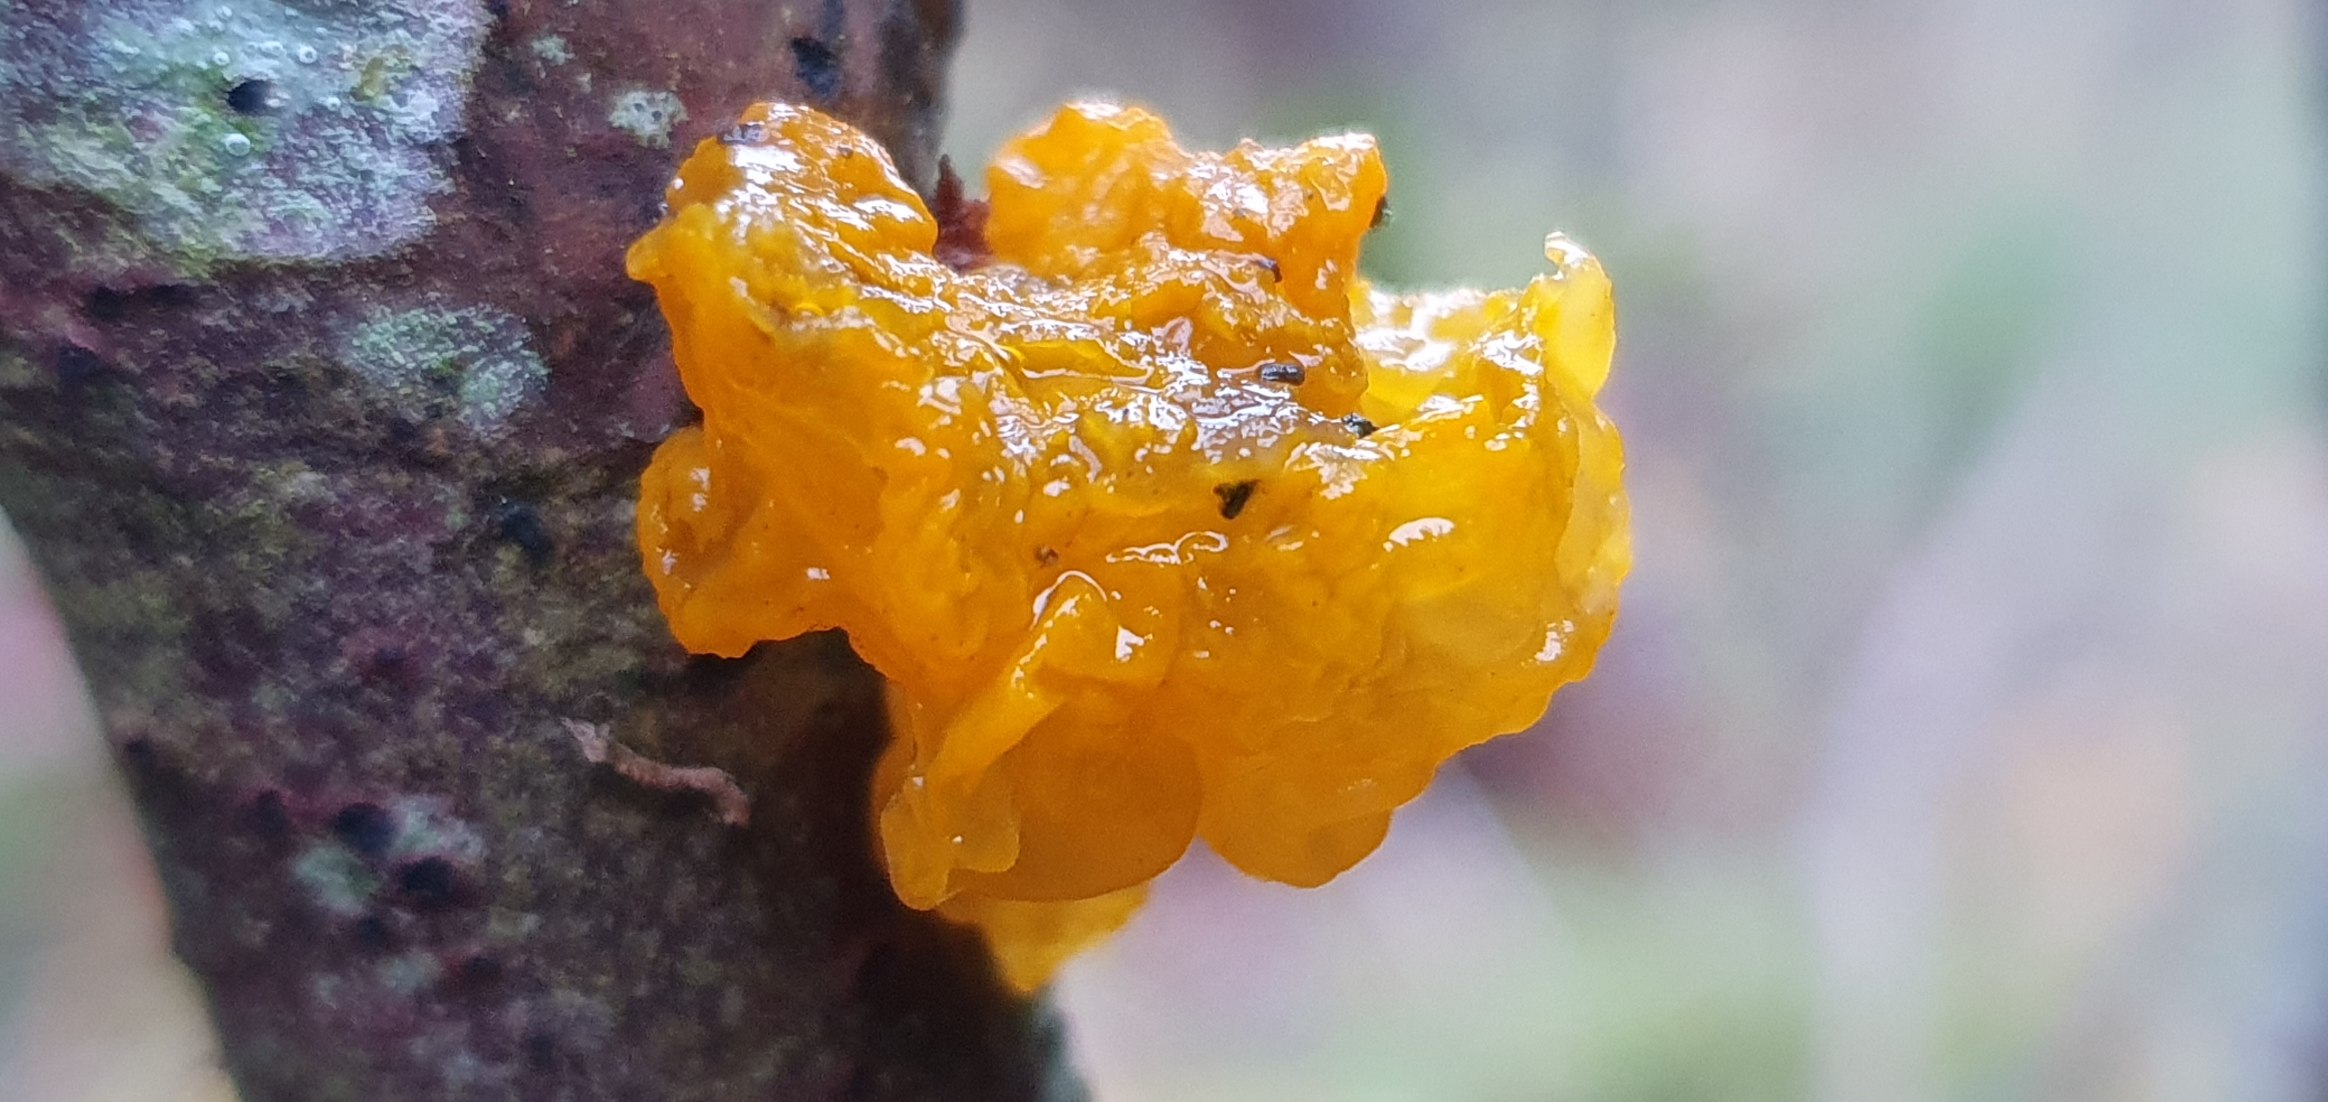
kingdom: Fungi
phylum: Basidiomycota
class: Tremellomycetes
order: Tremellales
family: Tremellaceae
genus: Tremella
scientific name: Tremella mesenterica
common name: Gul bævresvamp
